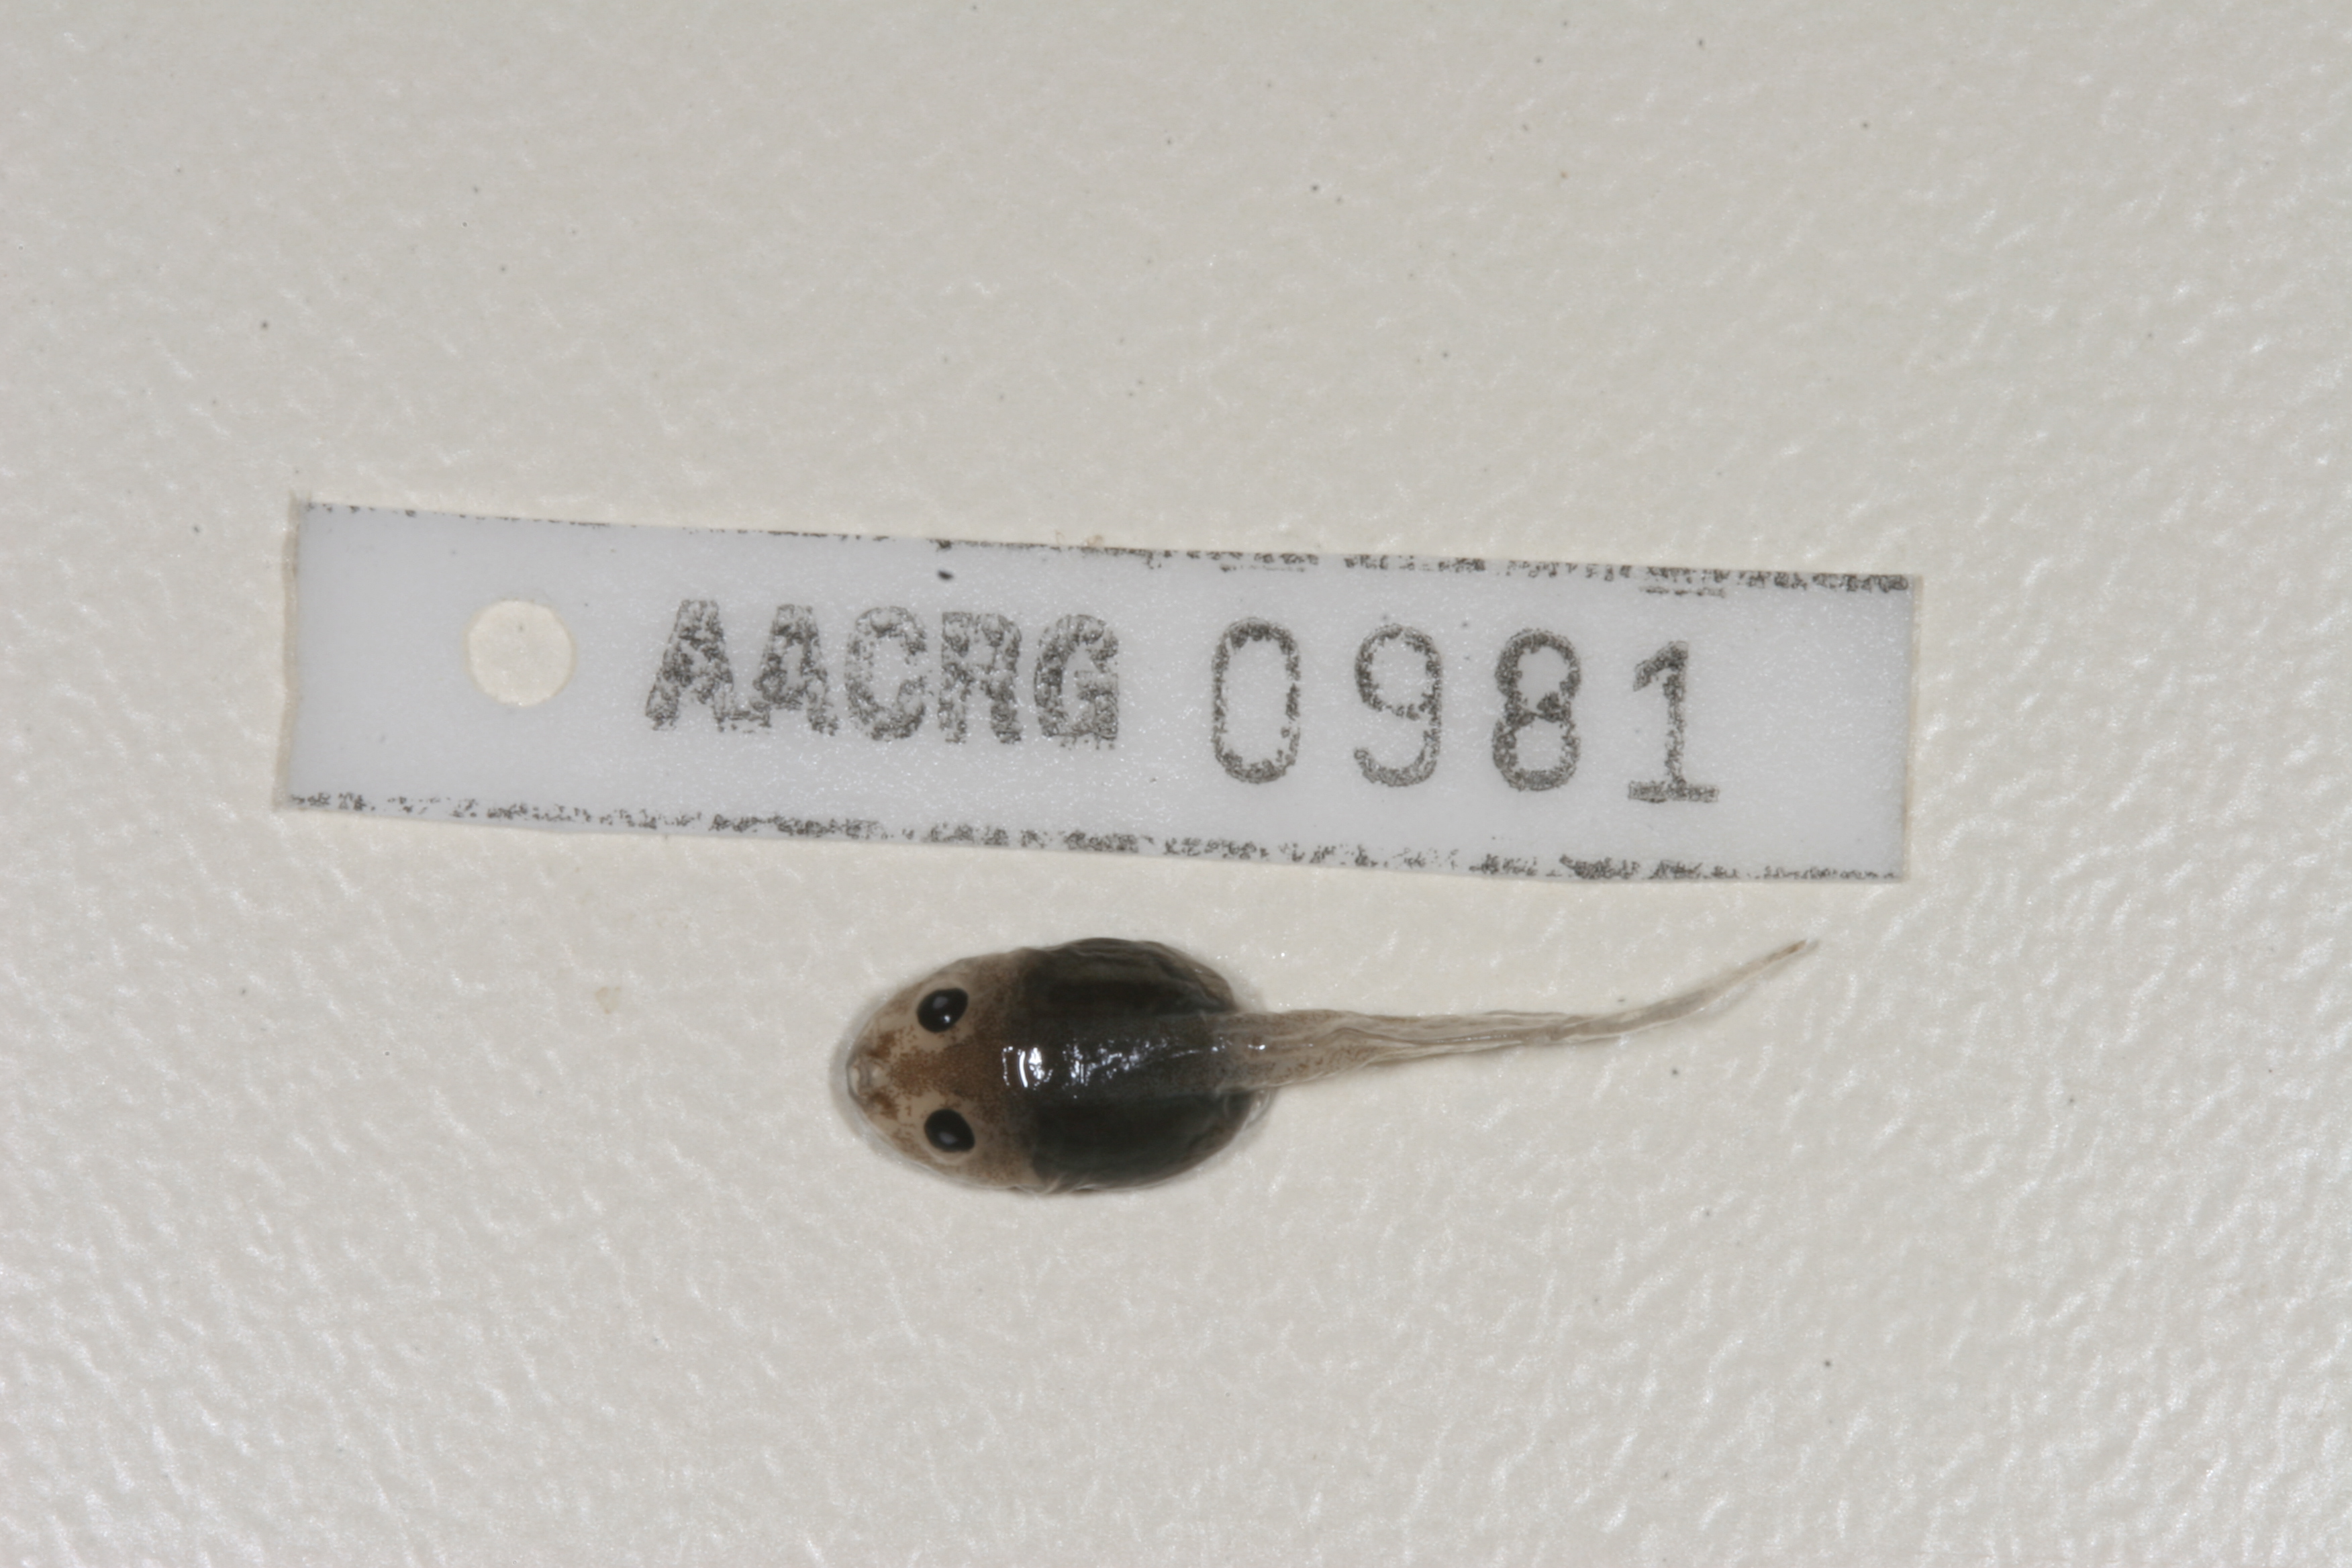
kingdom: Animalia
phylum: Chordata
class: Amphibia
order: Anura
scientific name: Anura
